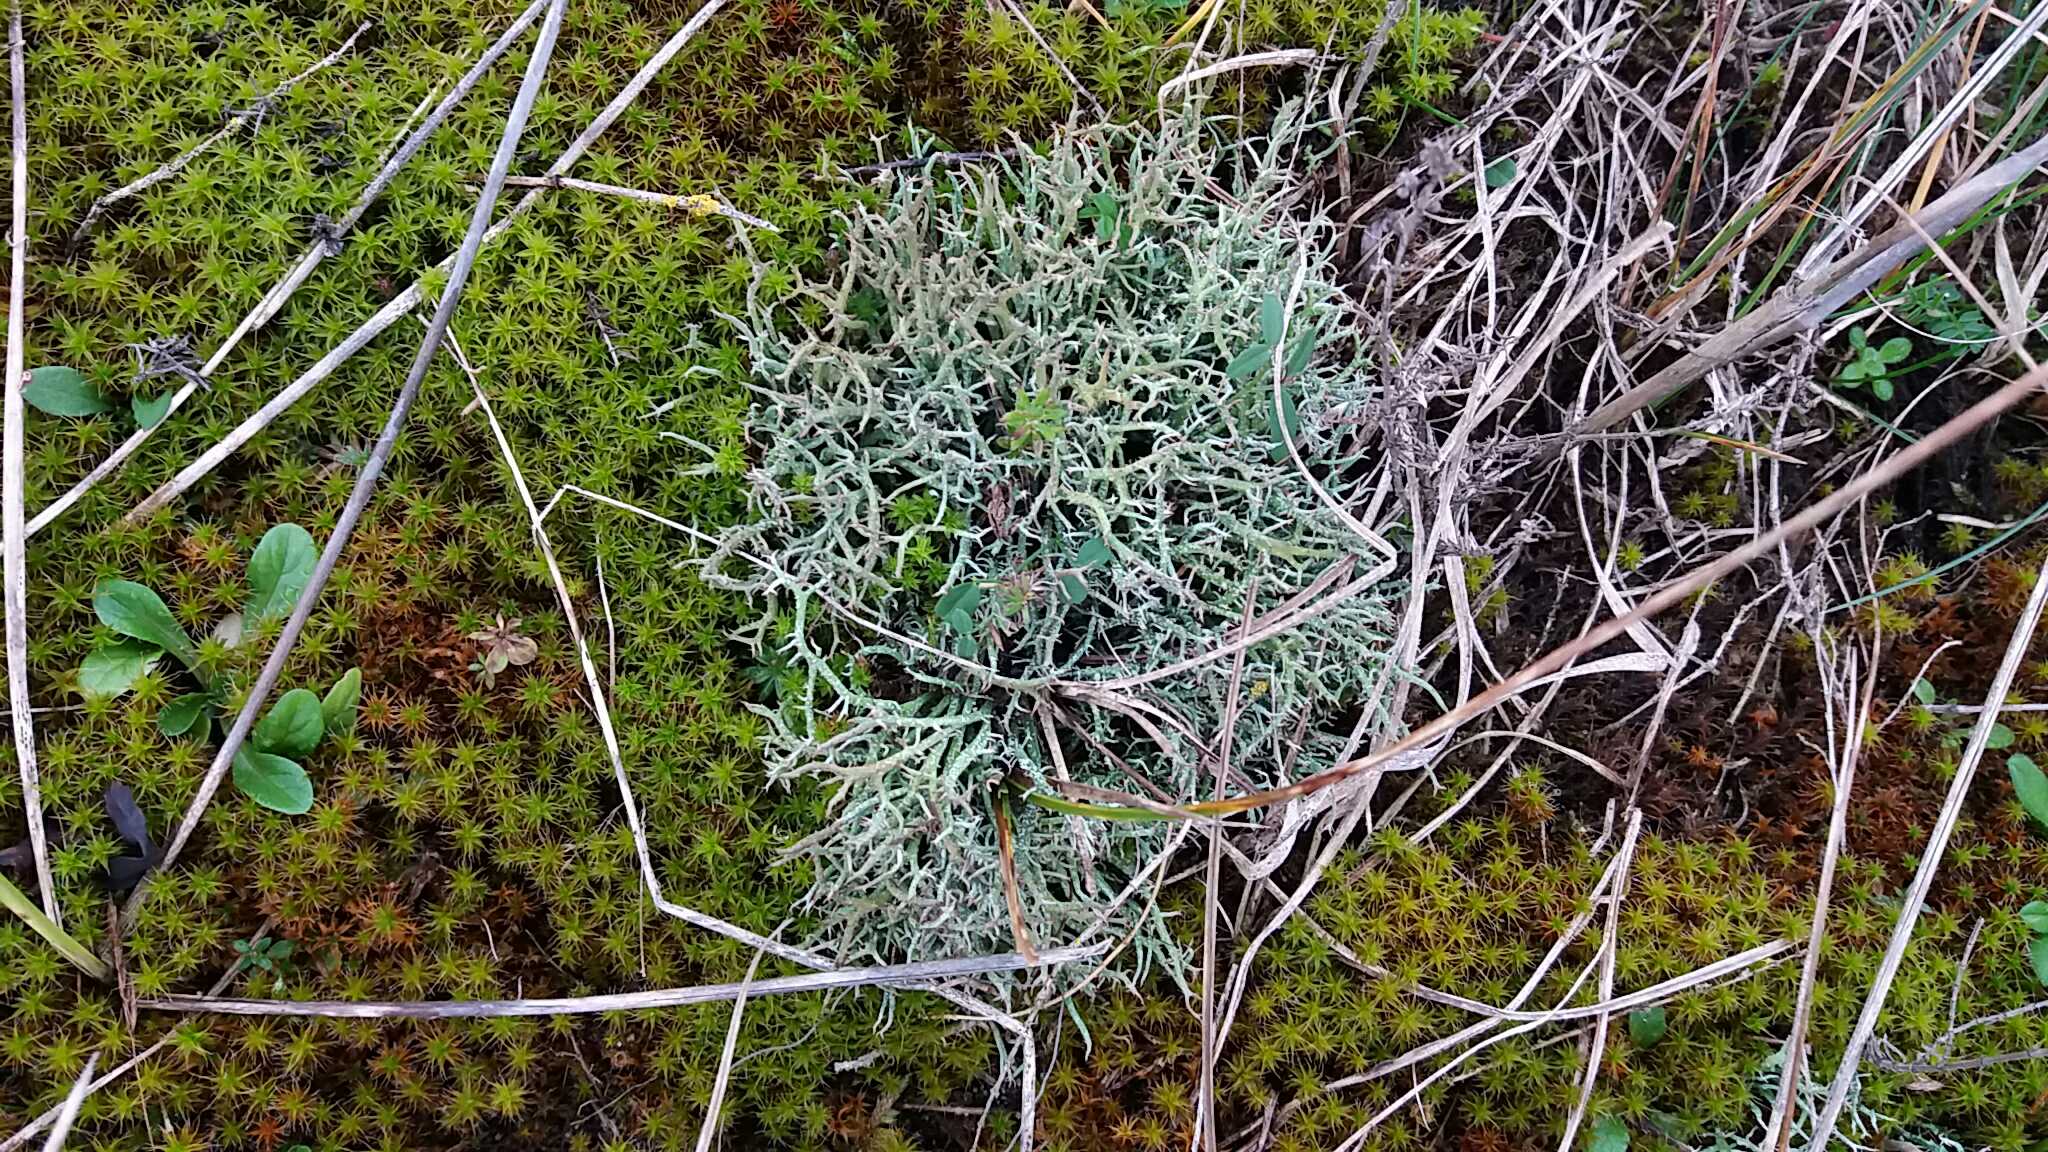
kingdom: Fungi
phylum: Ascomycota
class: Lecanoromycetes
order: Lecanorales
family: Cladoniaceae
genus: Cladonia
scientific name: Cladonia rangiformis
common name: spættet bægerlav
